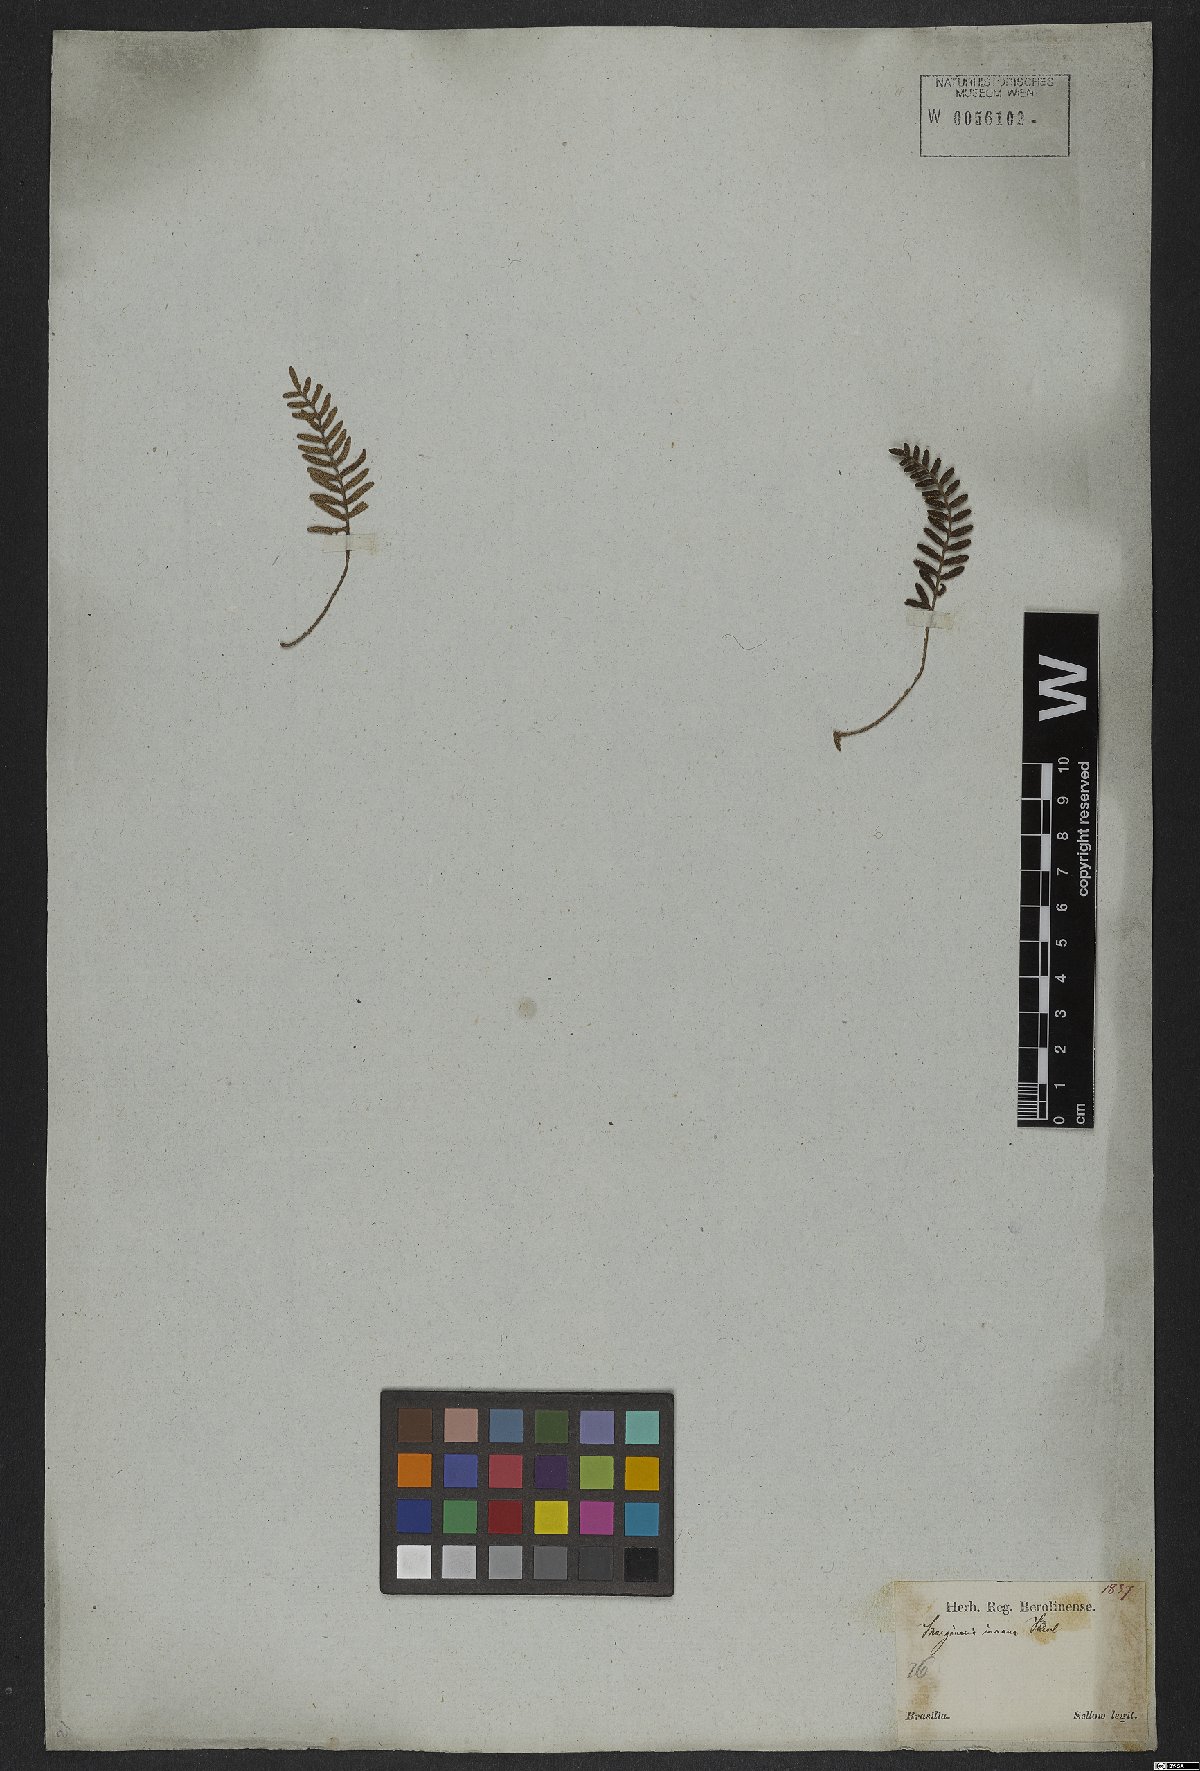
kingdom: Plantae
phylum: Tracheophyta
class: Polypodiopsida
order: Polypodiales
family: Polypodiaceae
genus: Pleopeltis
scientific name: Pleopeltis polypodioides
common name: Resurrection fern
